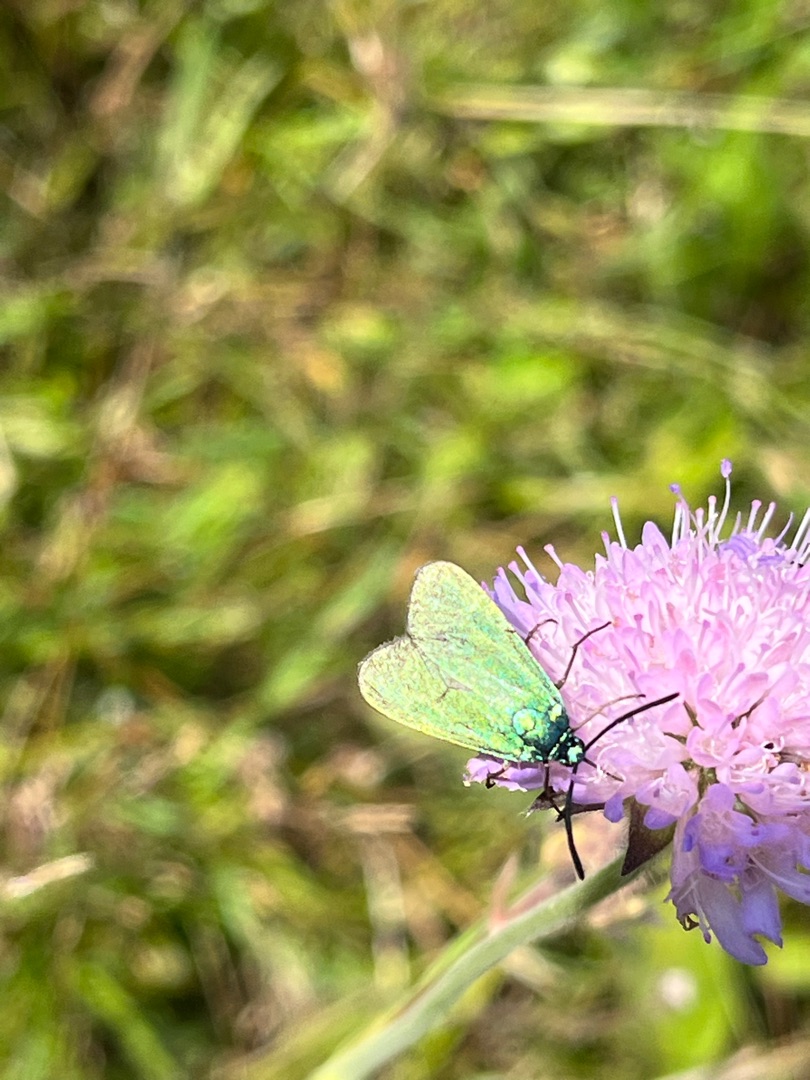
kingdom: Animalia
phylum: Arthropoda
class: Insecta
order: Lepidoptera
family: Zygaenidae
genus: Adscita
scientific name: Adscita statices
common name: Metalvinge
